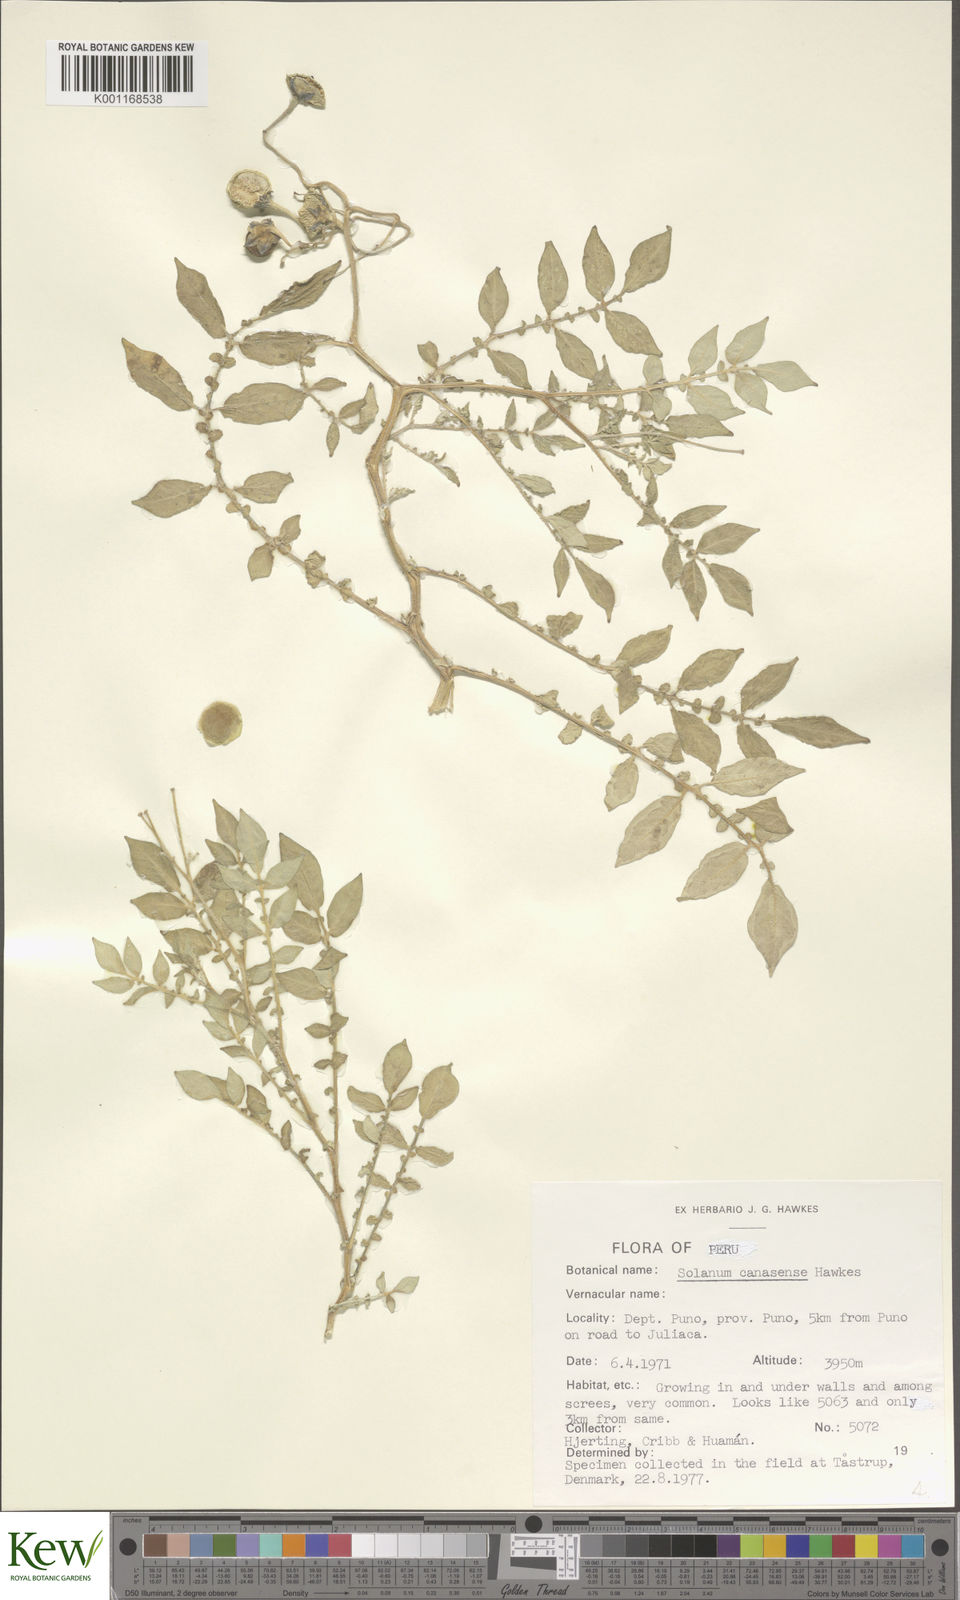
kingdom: Plantae
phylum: Tracheophyta
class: Magnoliopsida
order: Solanales
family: Solanaceae
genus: Solanum
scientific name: Solanum candolleanum
